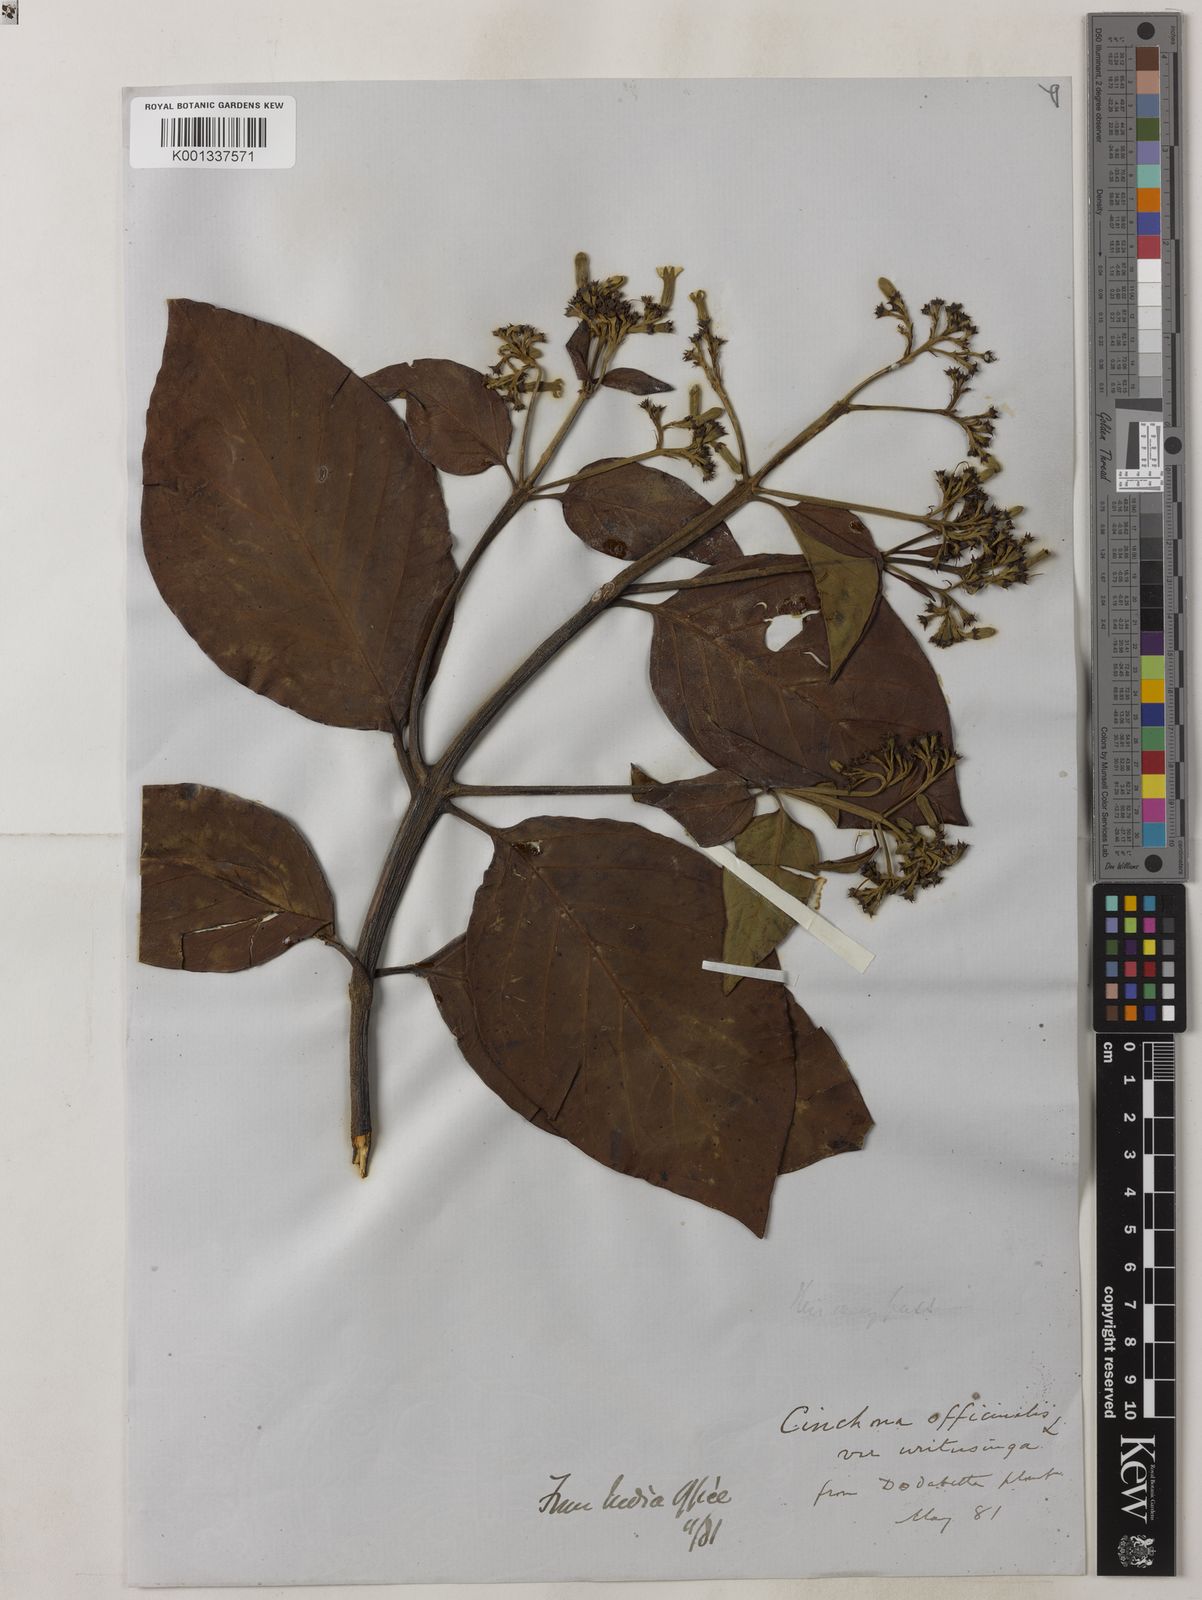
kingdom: Plantae
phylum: Tracheophyta
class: Magnoliopsida
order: Gentianales
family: Rubiaceae
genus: Cinchona
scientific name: Cinchona officinalis
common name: Lojabark
